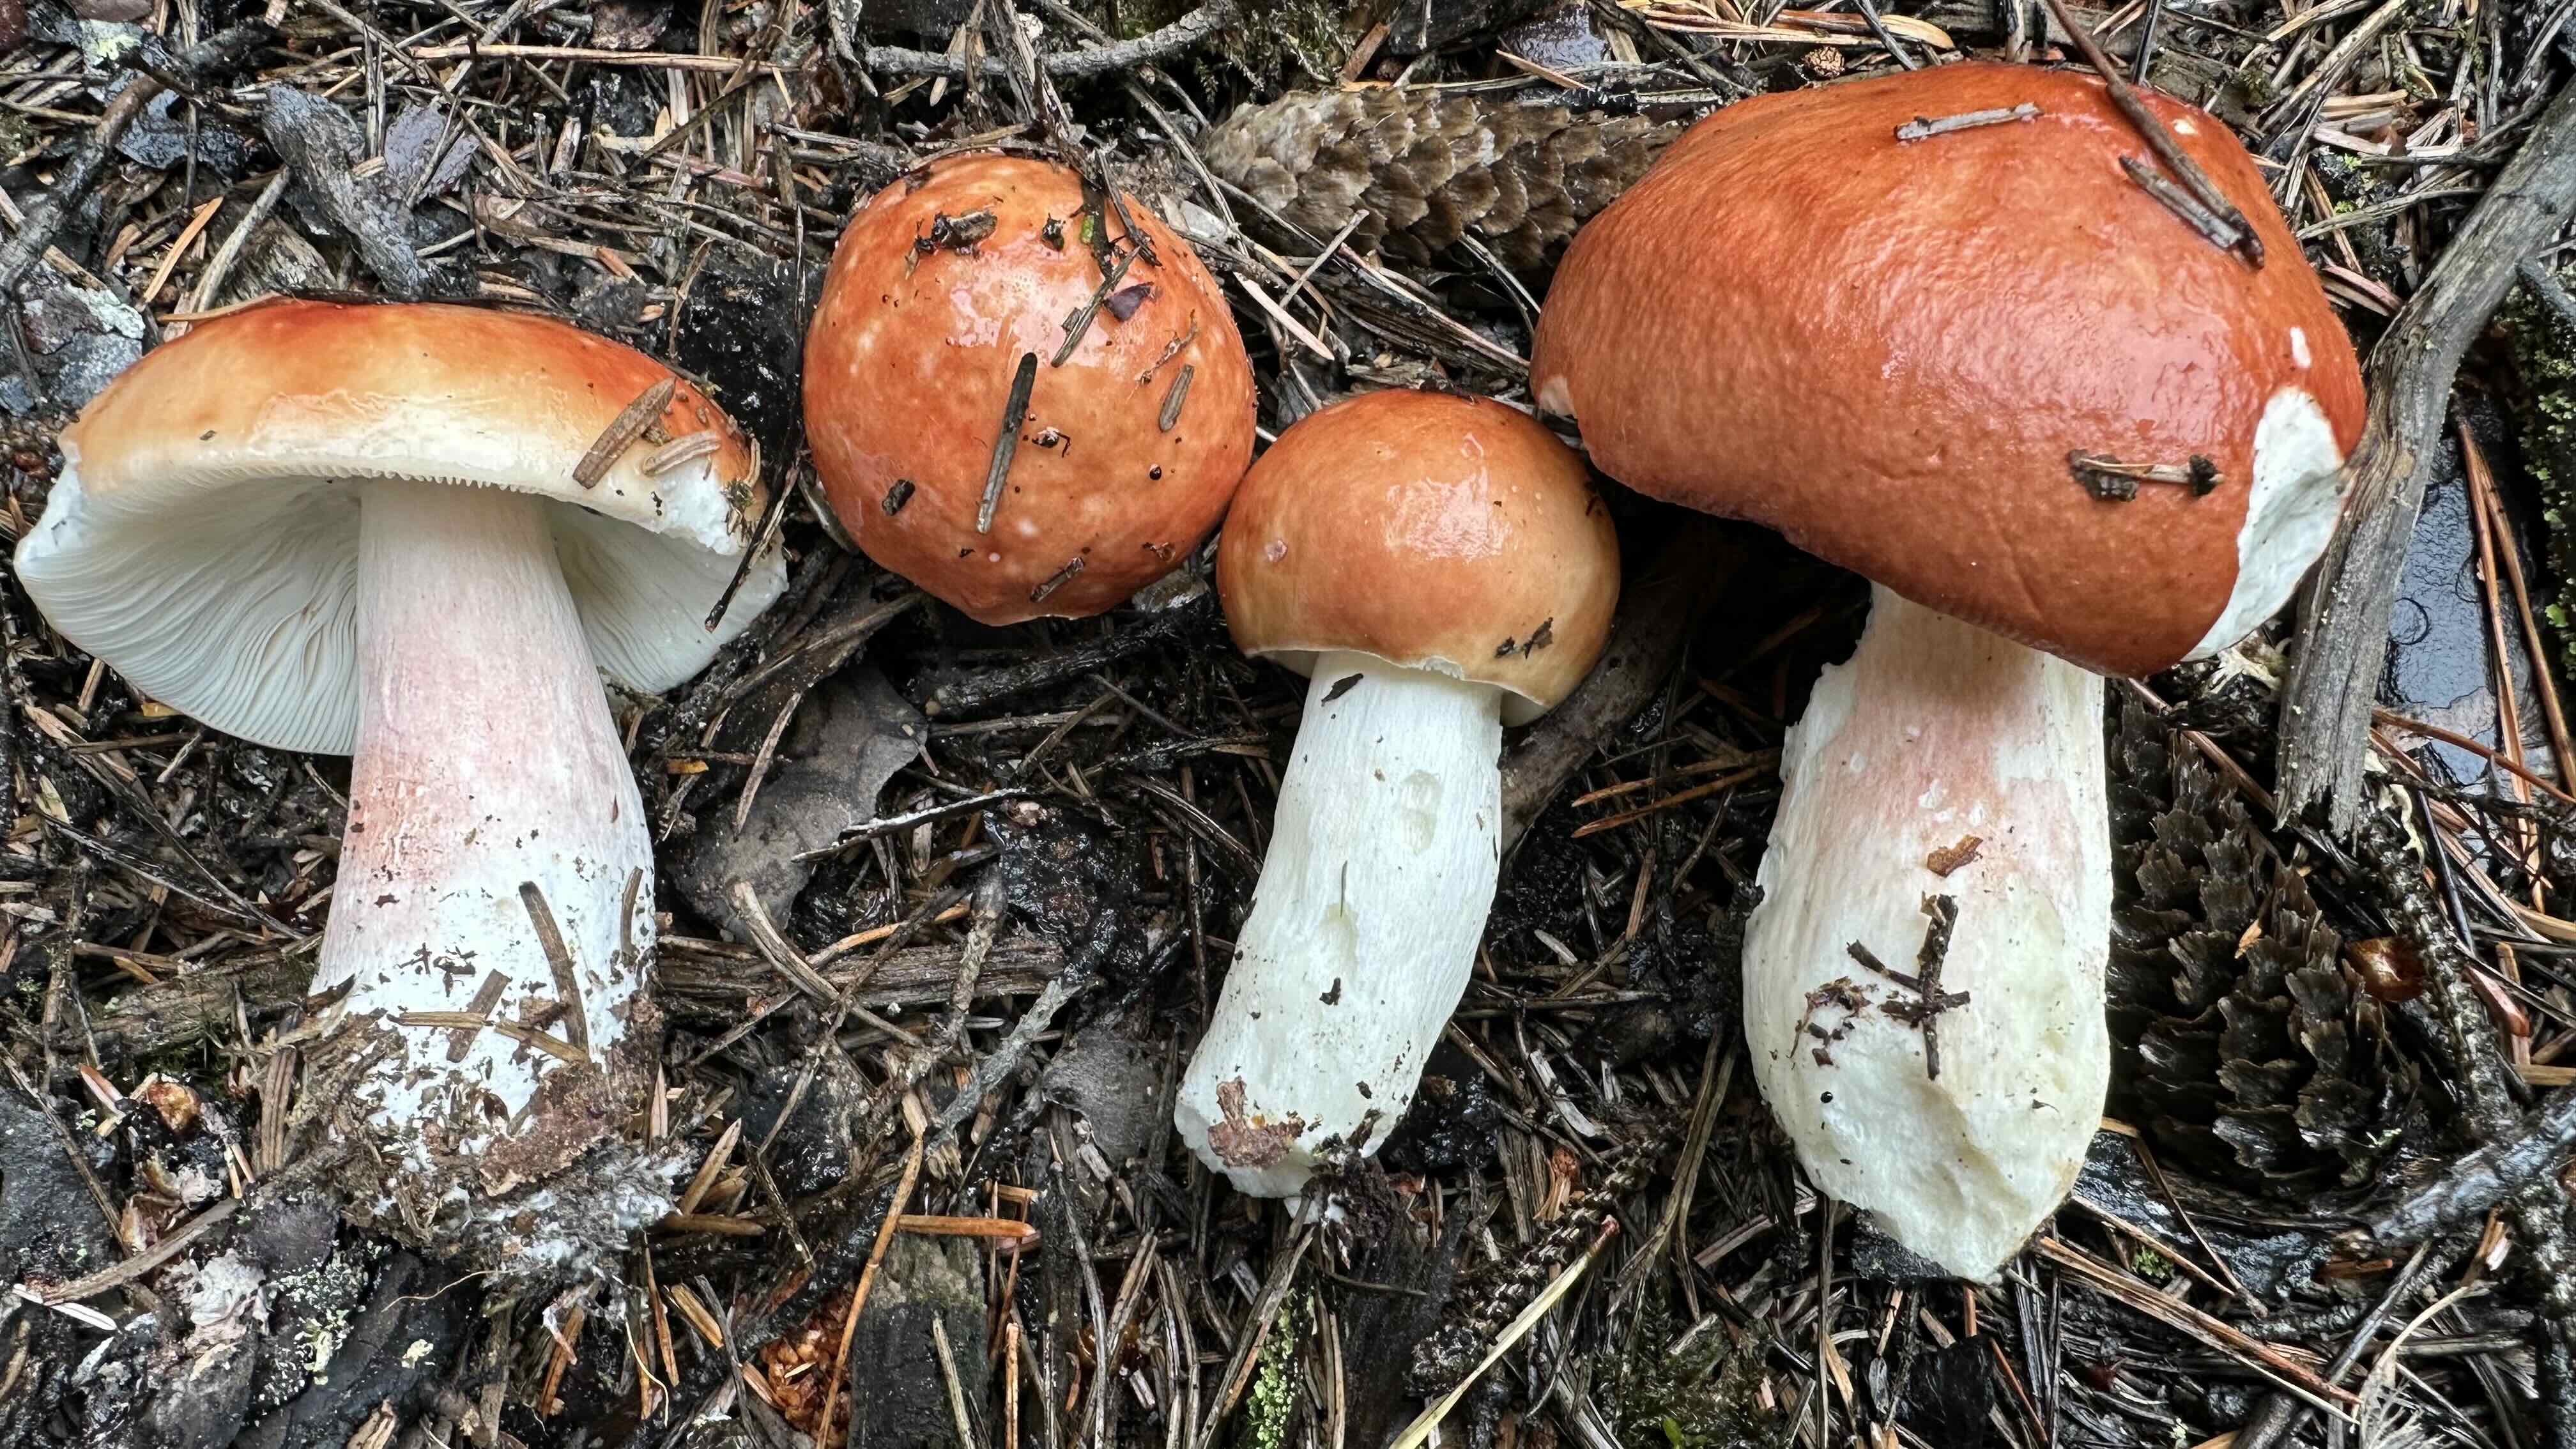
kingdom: Fungi
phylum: Basidiomycota
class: Agaricomycetes
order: Russulales
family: Russulaceae
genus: Russula
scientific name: Russula paludosa
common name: prægtig skørhat
